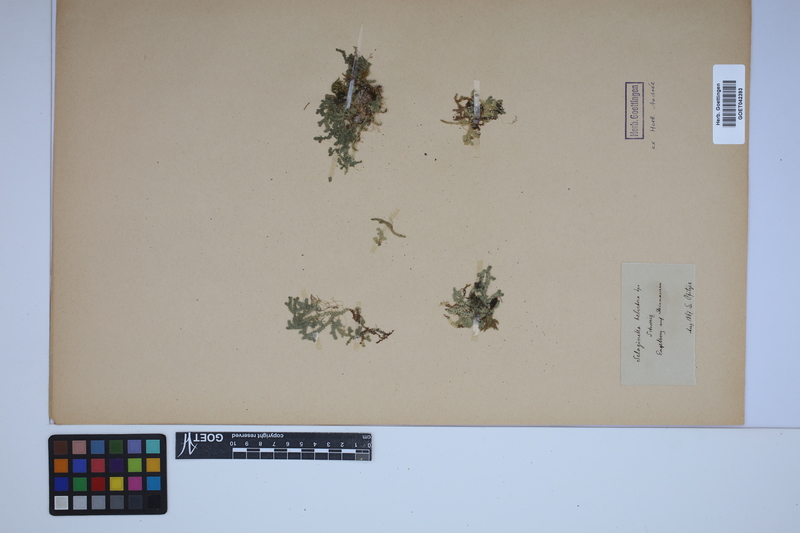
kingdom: Plantae
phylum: Tracheophyta
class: Lycopodiopsida
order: Selaginellales
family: Selaginellaceae
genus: Selaginella
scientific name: Selaginella helvetica
